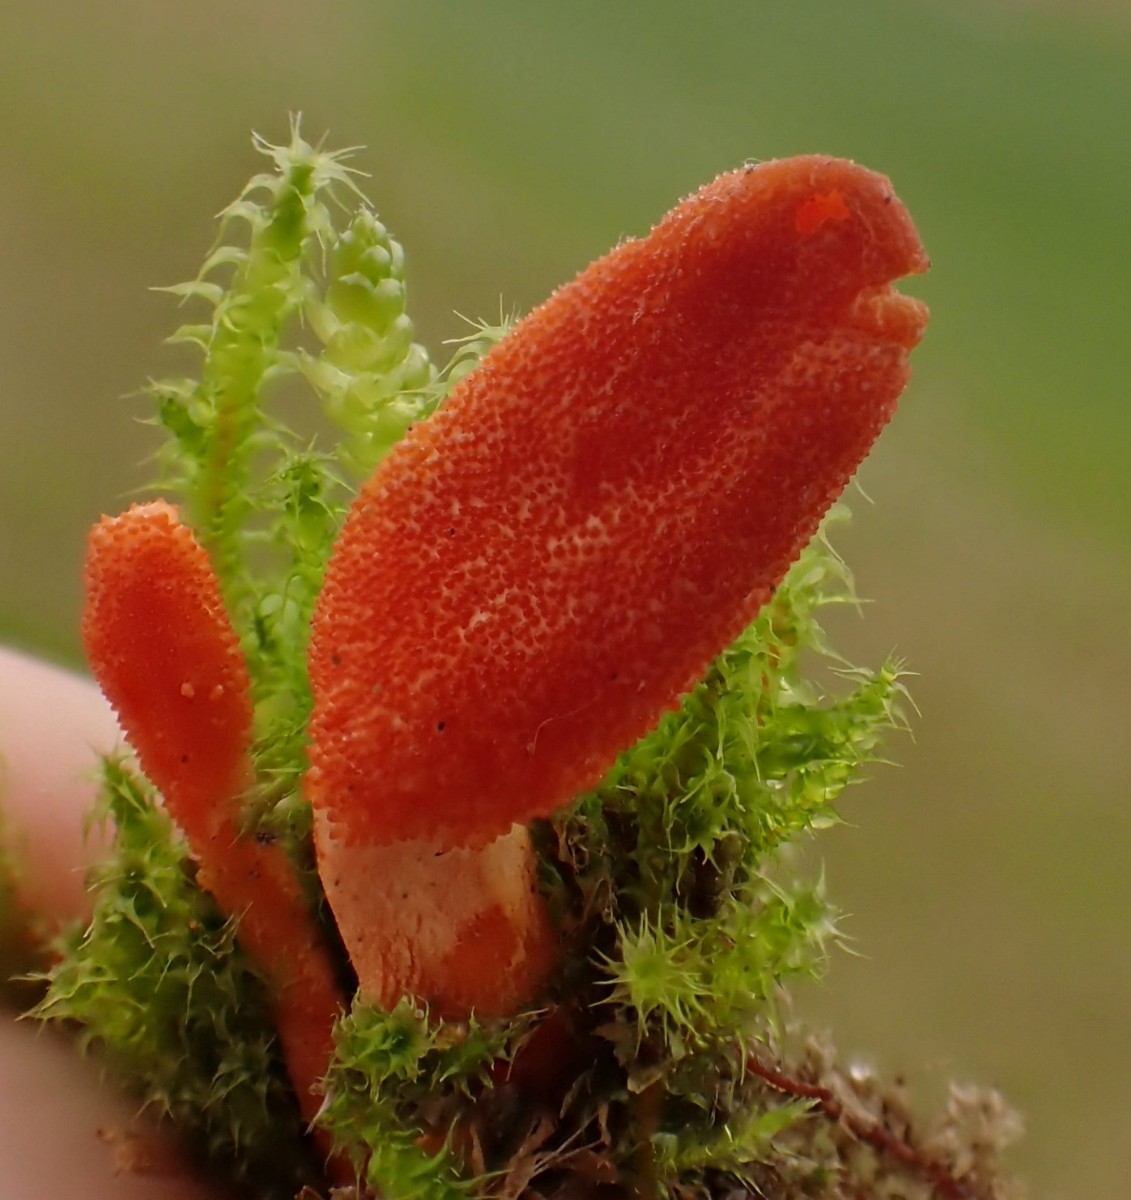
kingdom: Fungi
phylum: Ascomycota
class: Sordariomycetes
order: Hypocreales
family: Cordycipitaceae
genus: Cordyceps
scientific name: Cordyceps militaris
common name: puppe-snyltekølle
